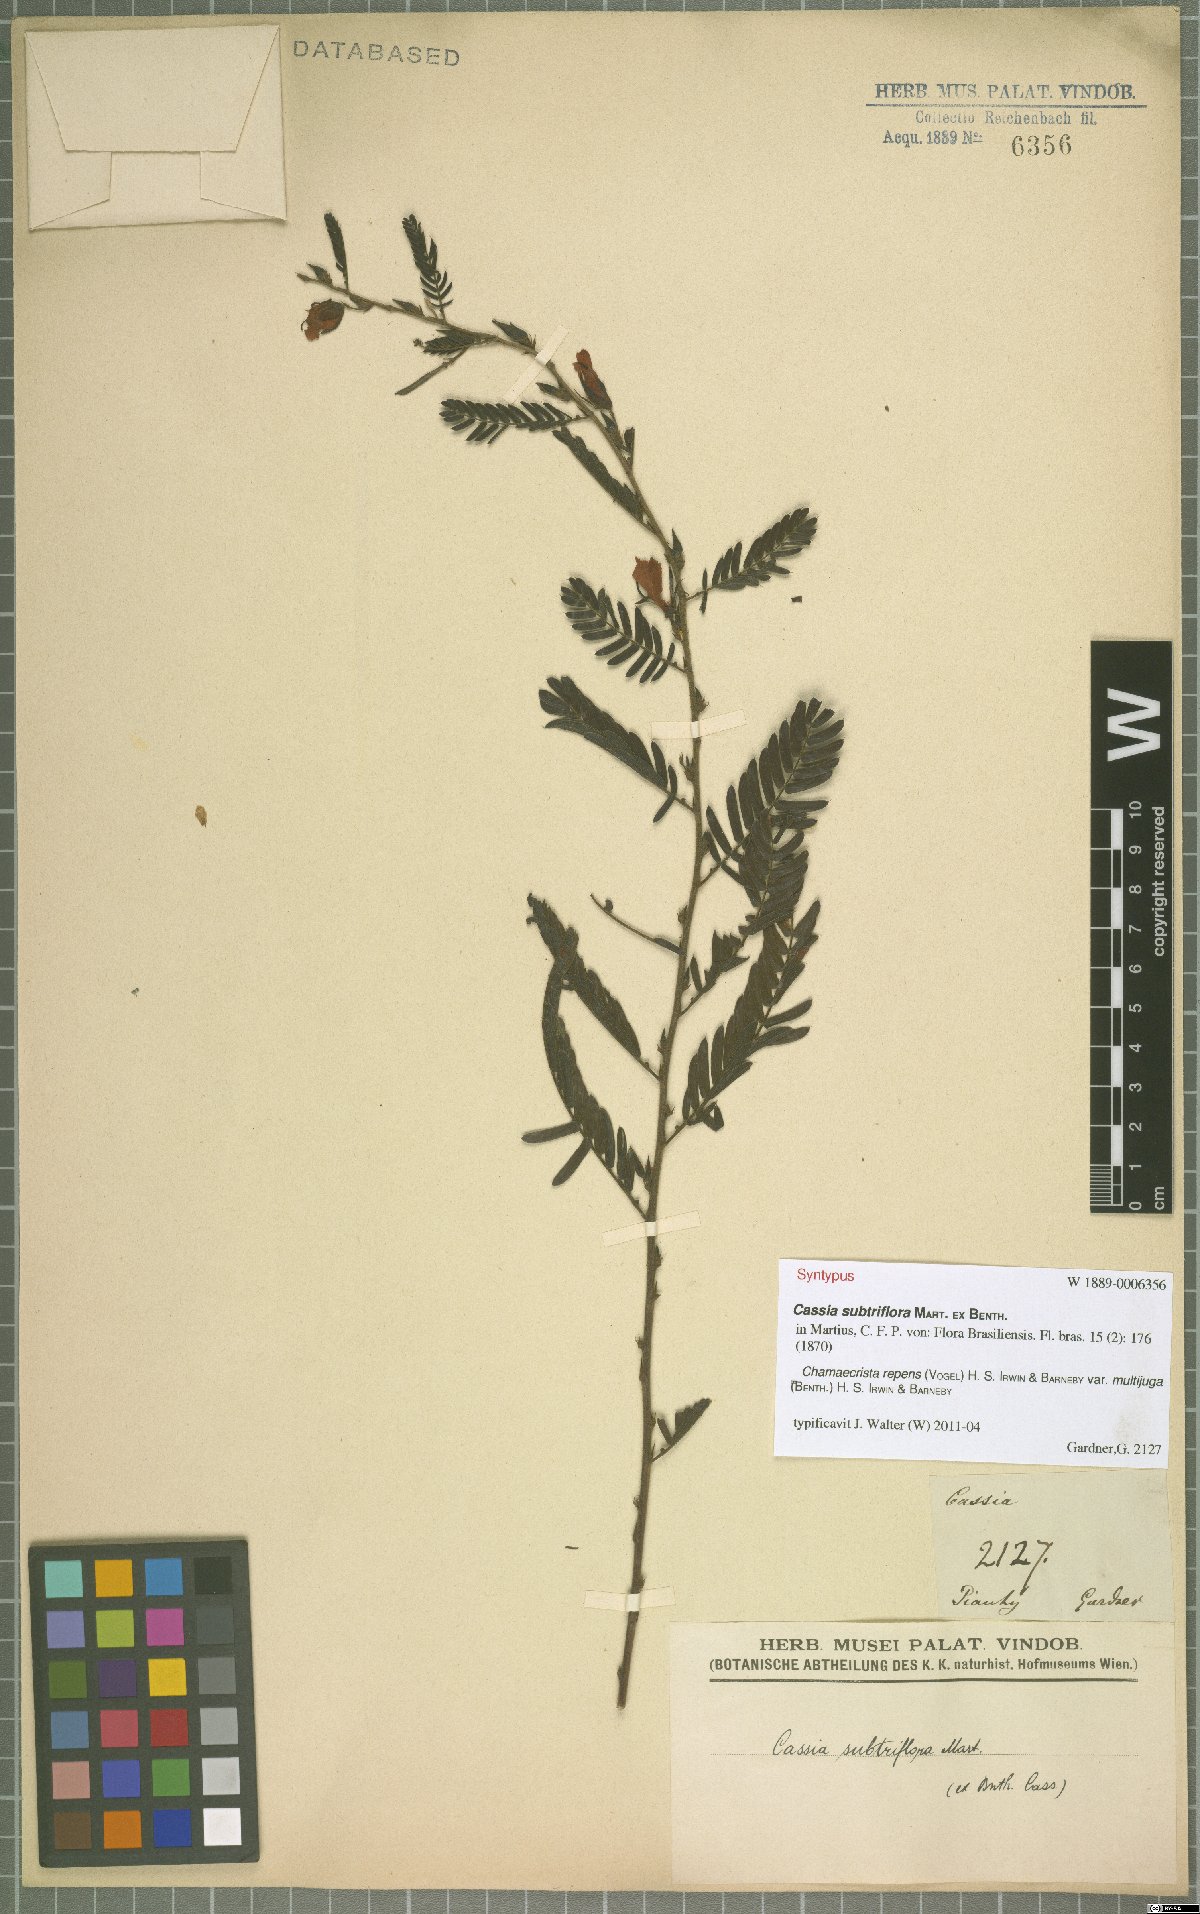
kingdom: Plantae
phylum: Tracheophyta
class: Magnoliopsida
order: Fabales
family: Fabaceae
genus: Chamaecrista
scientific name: Chamaecrista repens
